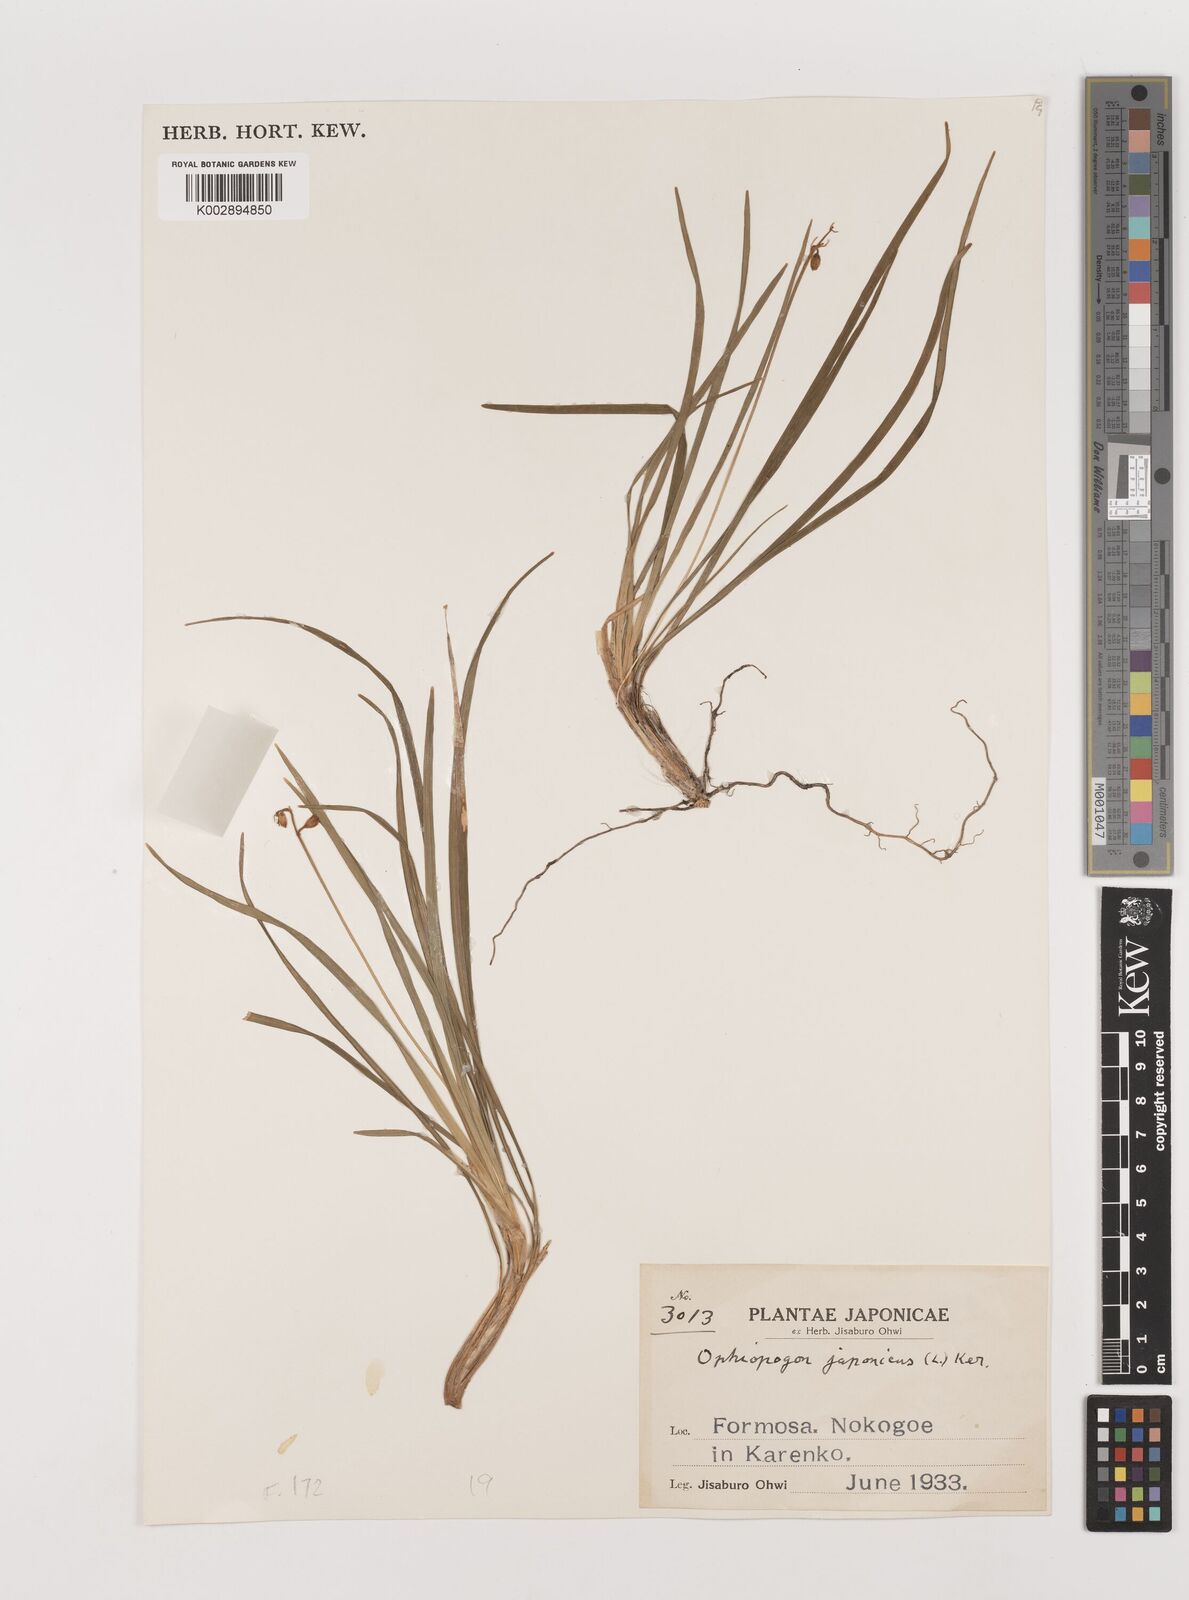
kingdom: Plantae
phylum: Tracheophyta
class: Liliopsida
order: Asparagales
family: Asparagaceae
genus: Ophiopogon
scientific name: Ophiopogon japonicus
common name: Dwarf lilyturf
